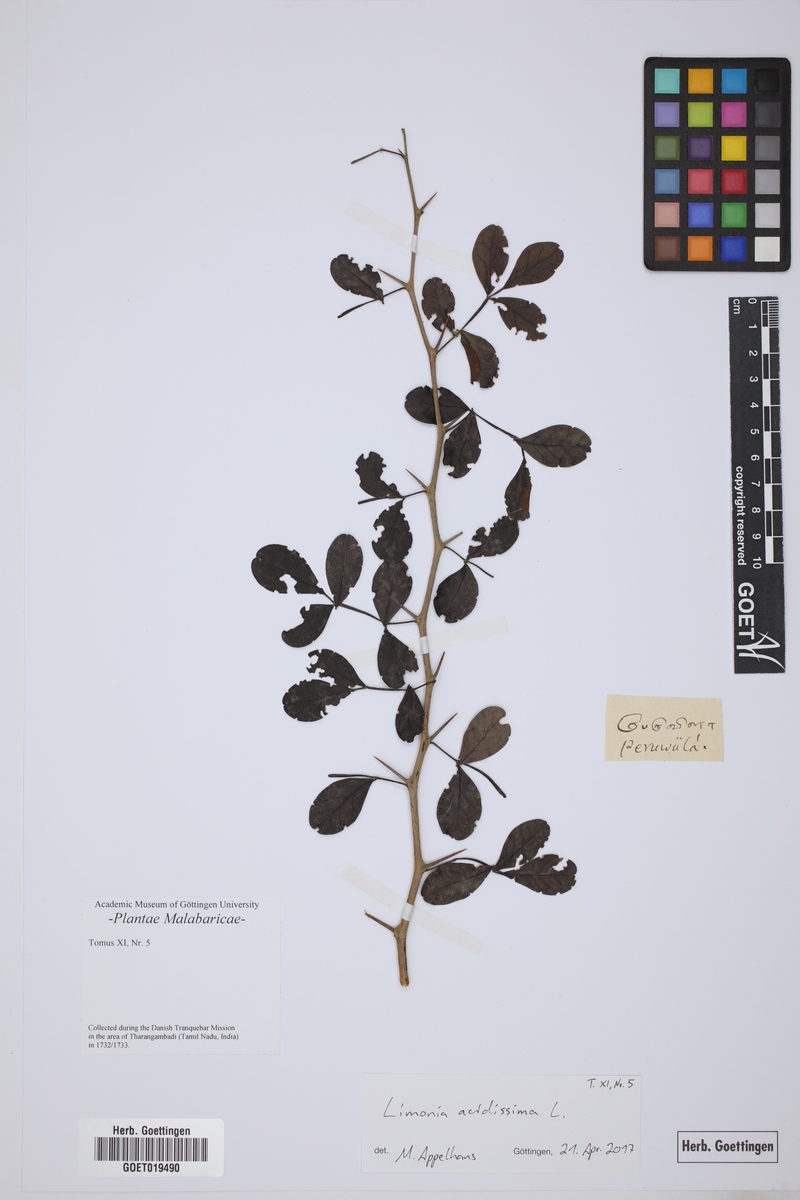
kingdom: Plantae
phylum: Tracheophyta
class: Magnoliopsida
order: Sapindales
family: Rutaceae
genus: Limonia
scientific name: Limonia acidissima
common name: Elephant apple
